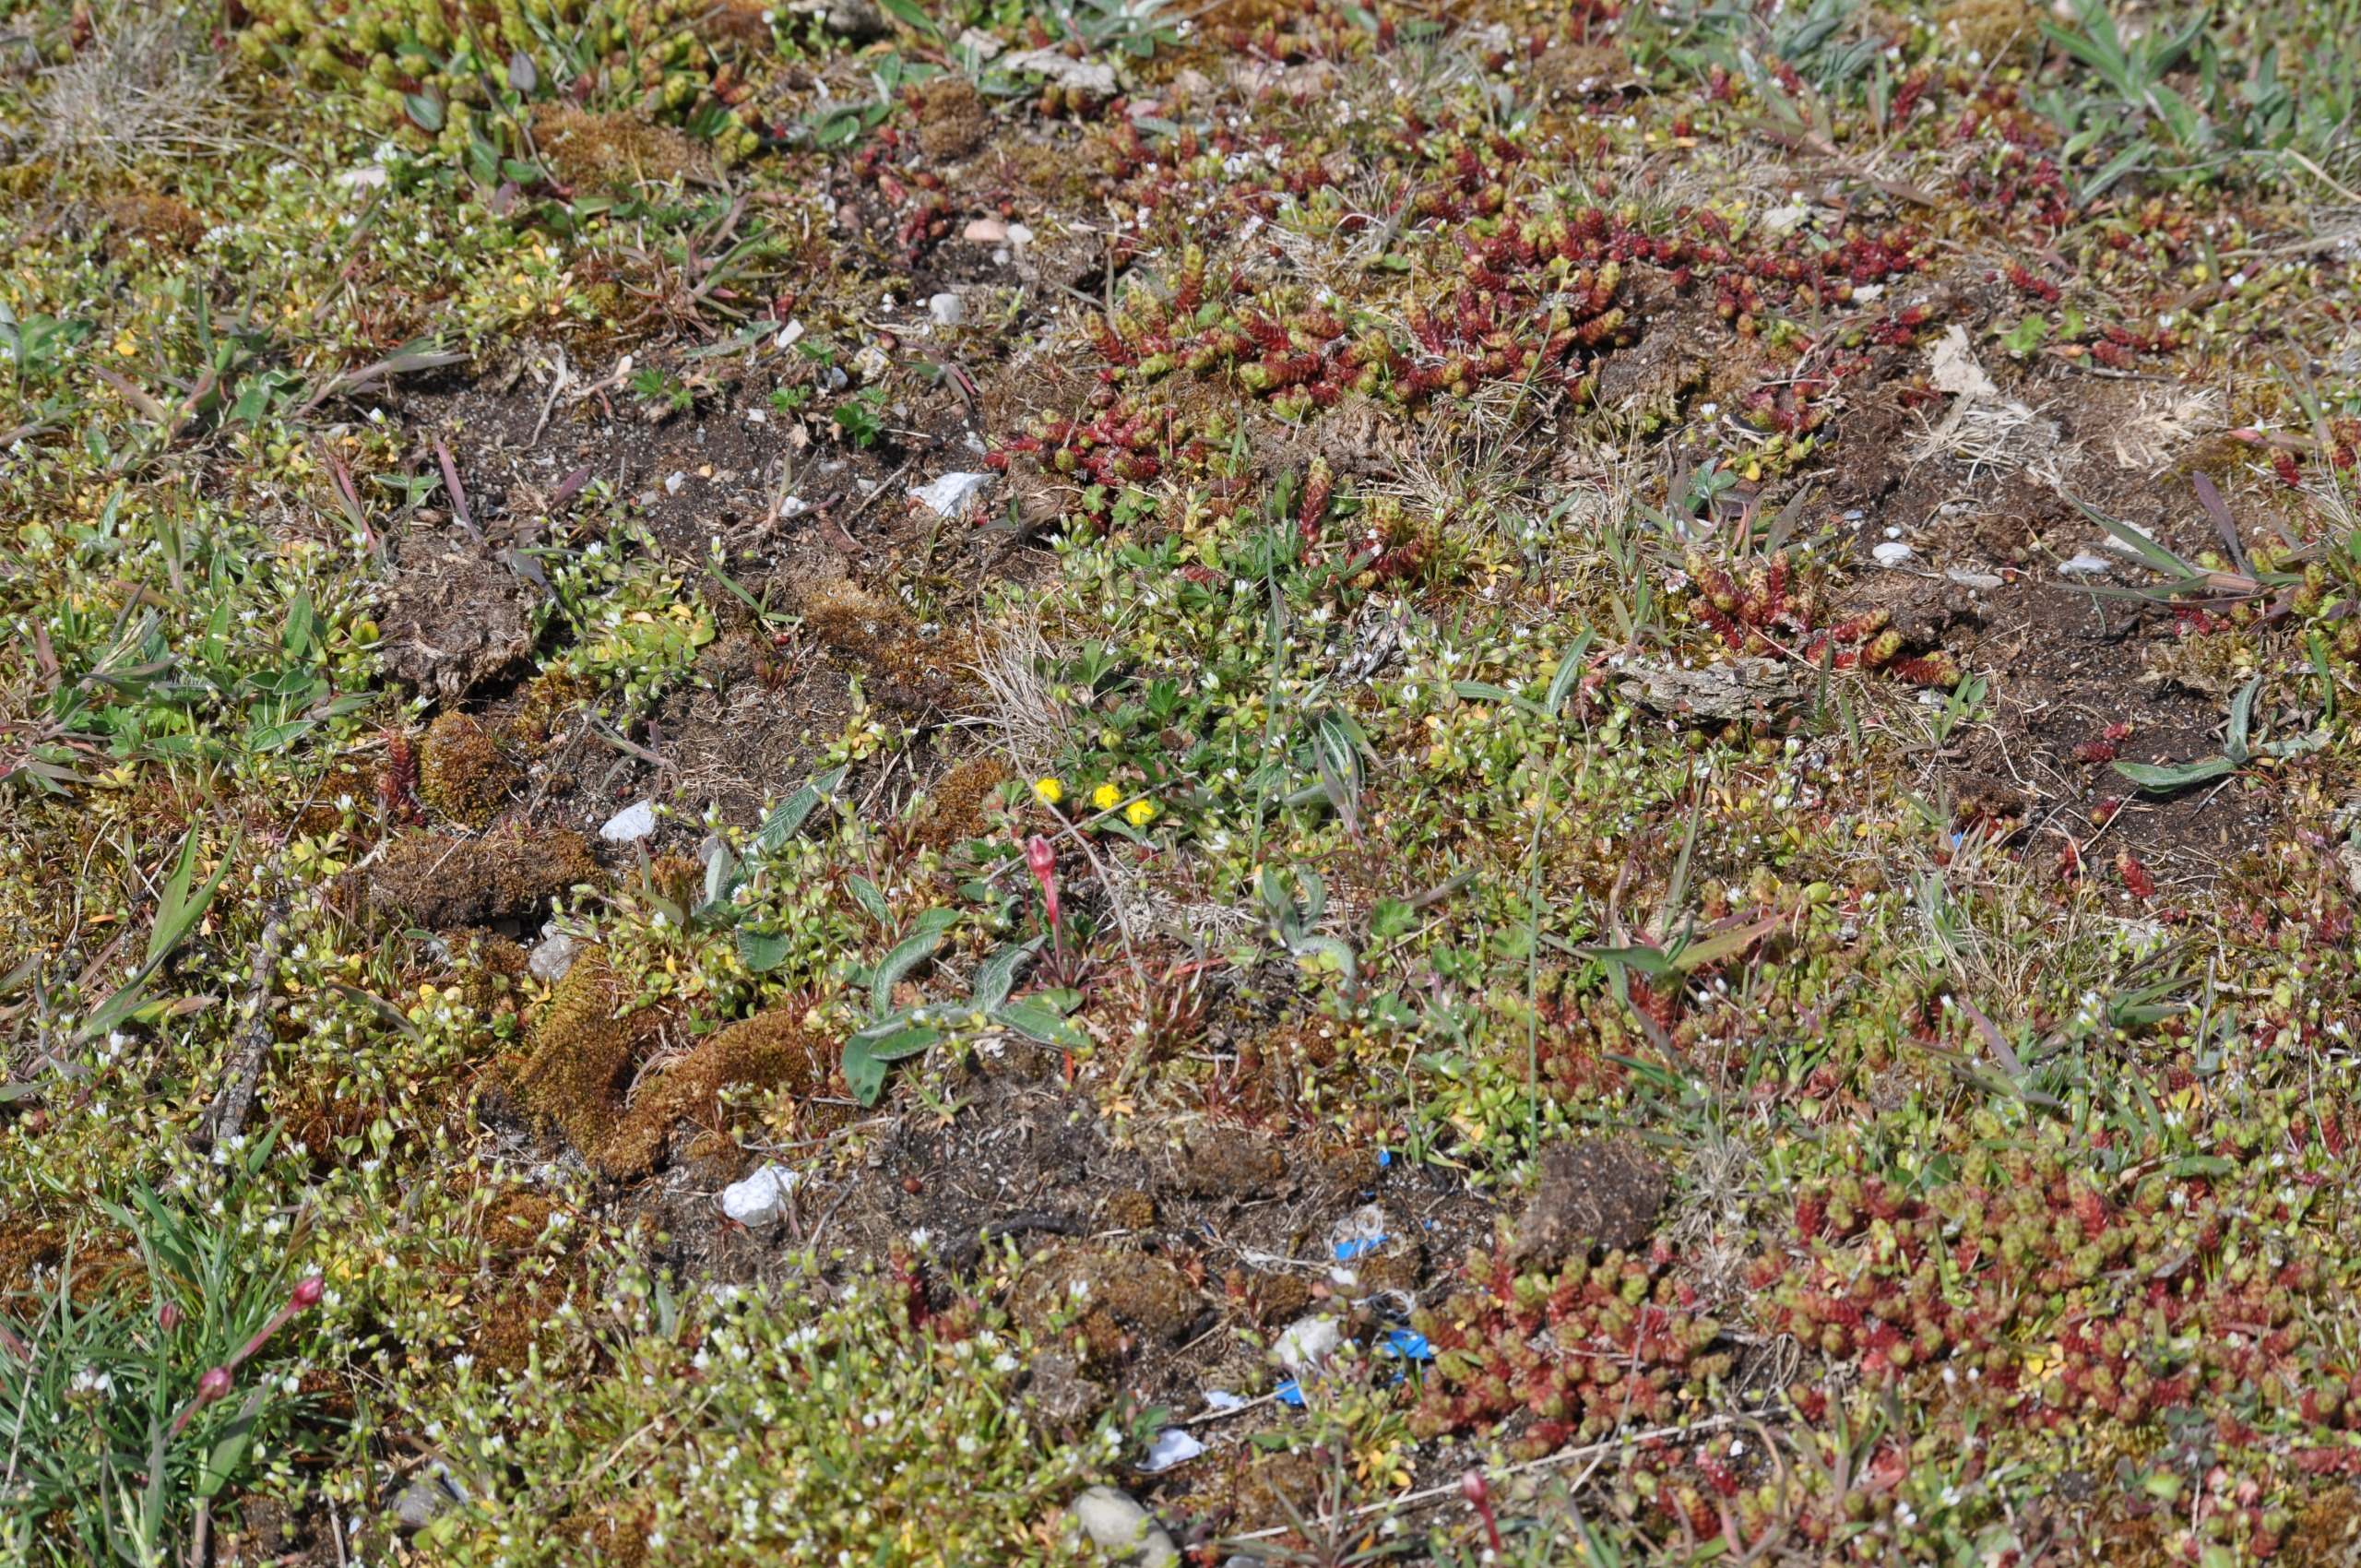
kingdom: Plantae
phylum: Tracheophyta
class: Magnoliopsida
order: Saxifragales
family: Crassulaceae
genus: Sedum
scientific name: Sedum acre
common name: Bidende stenurt
